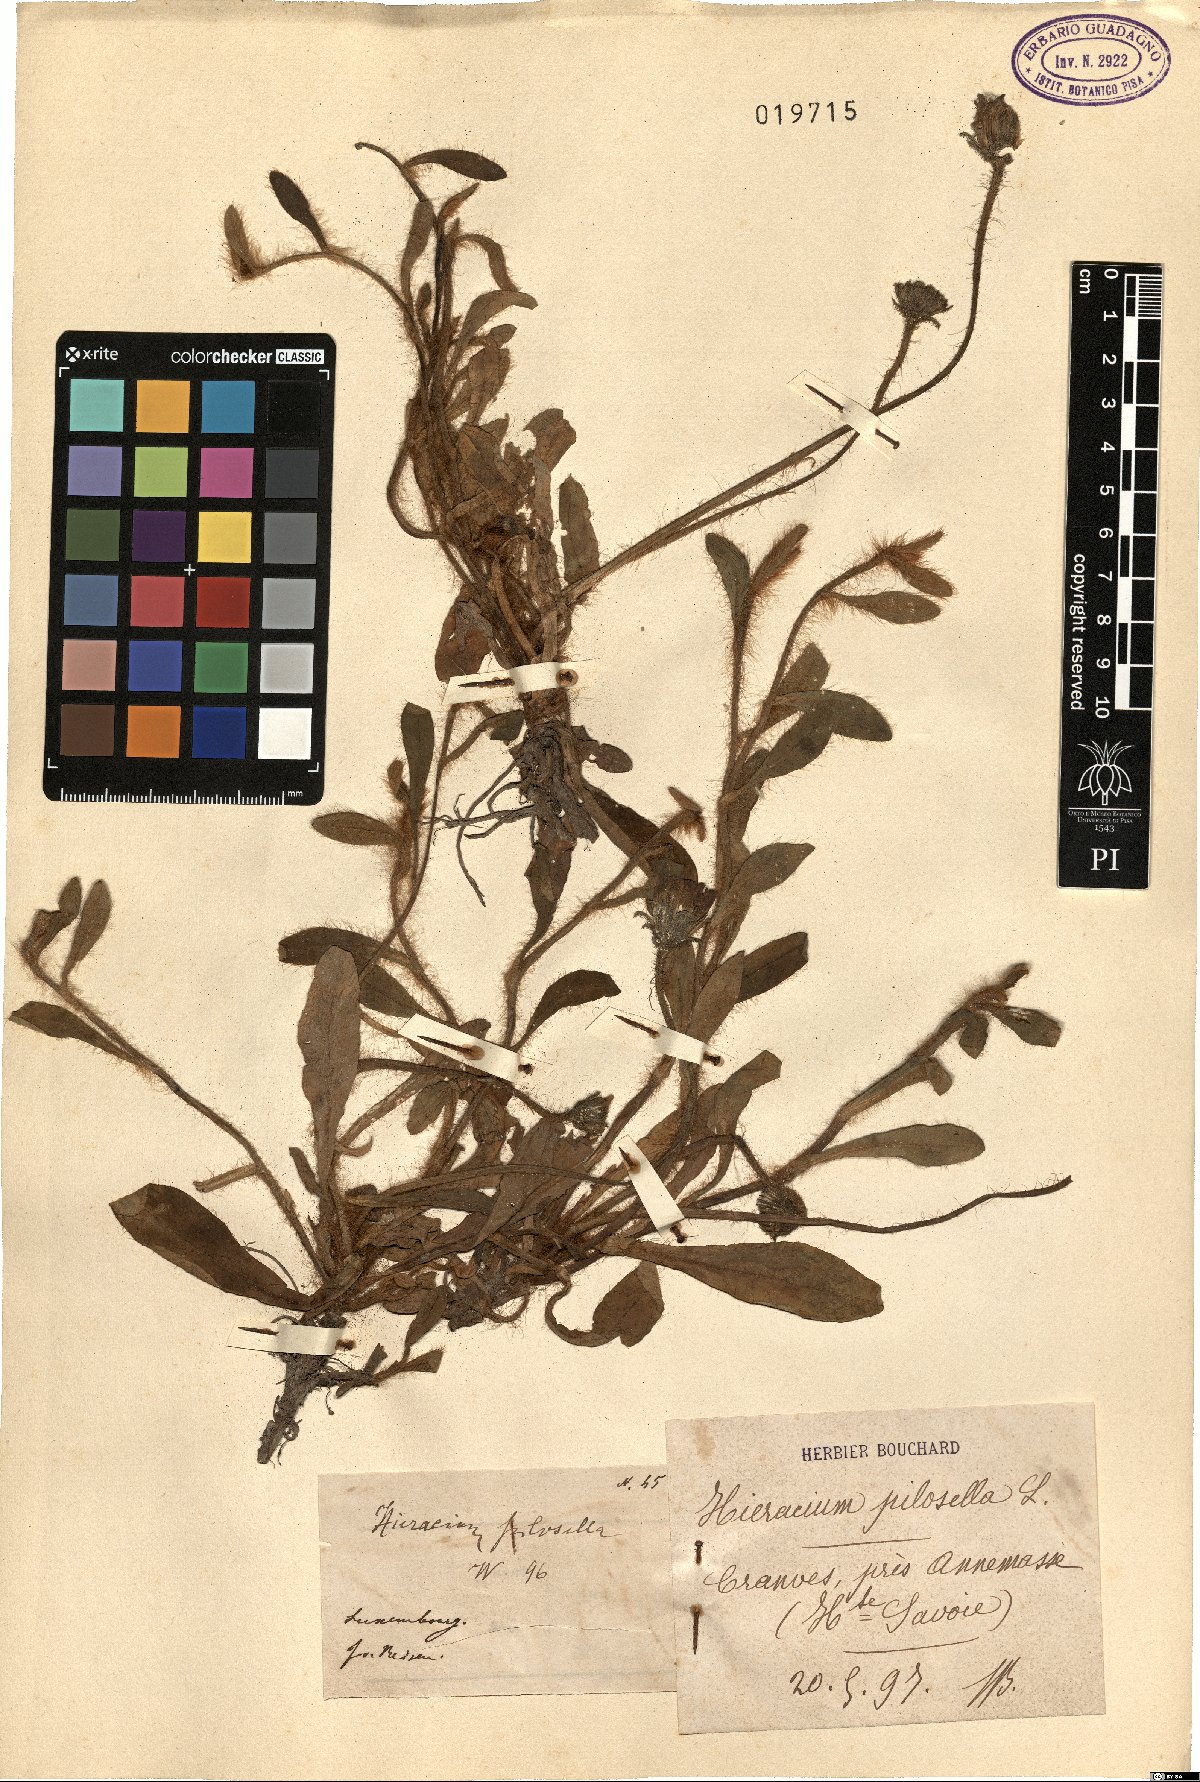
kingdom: Plantae
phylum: Tracheophyta
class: Magnoliopsida
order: Asterales
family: Asteraceae
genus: Pilosella
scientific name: Pilosella officinarum
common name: Mouse-ear hawkweed
